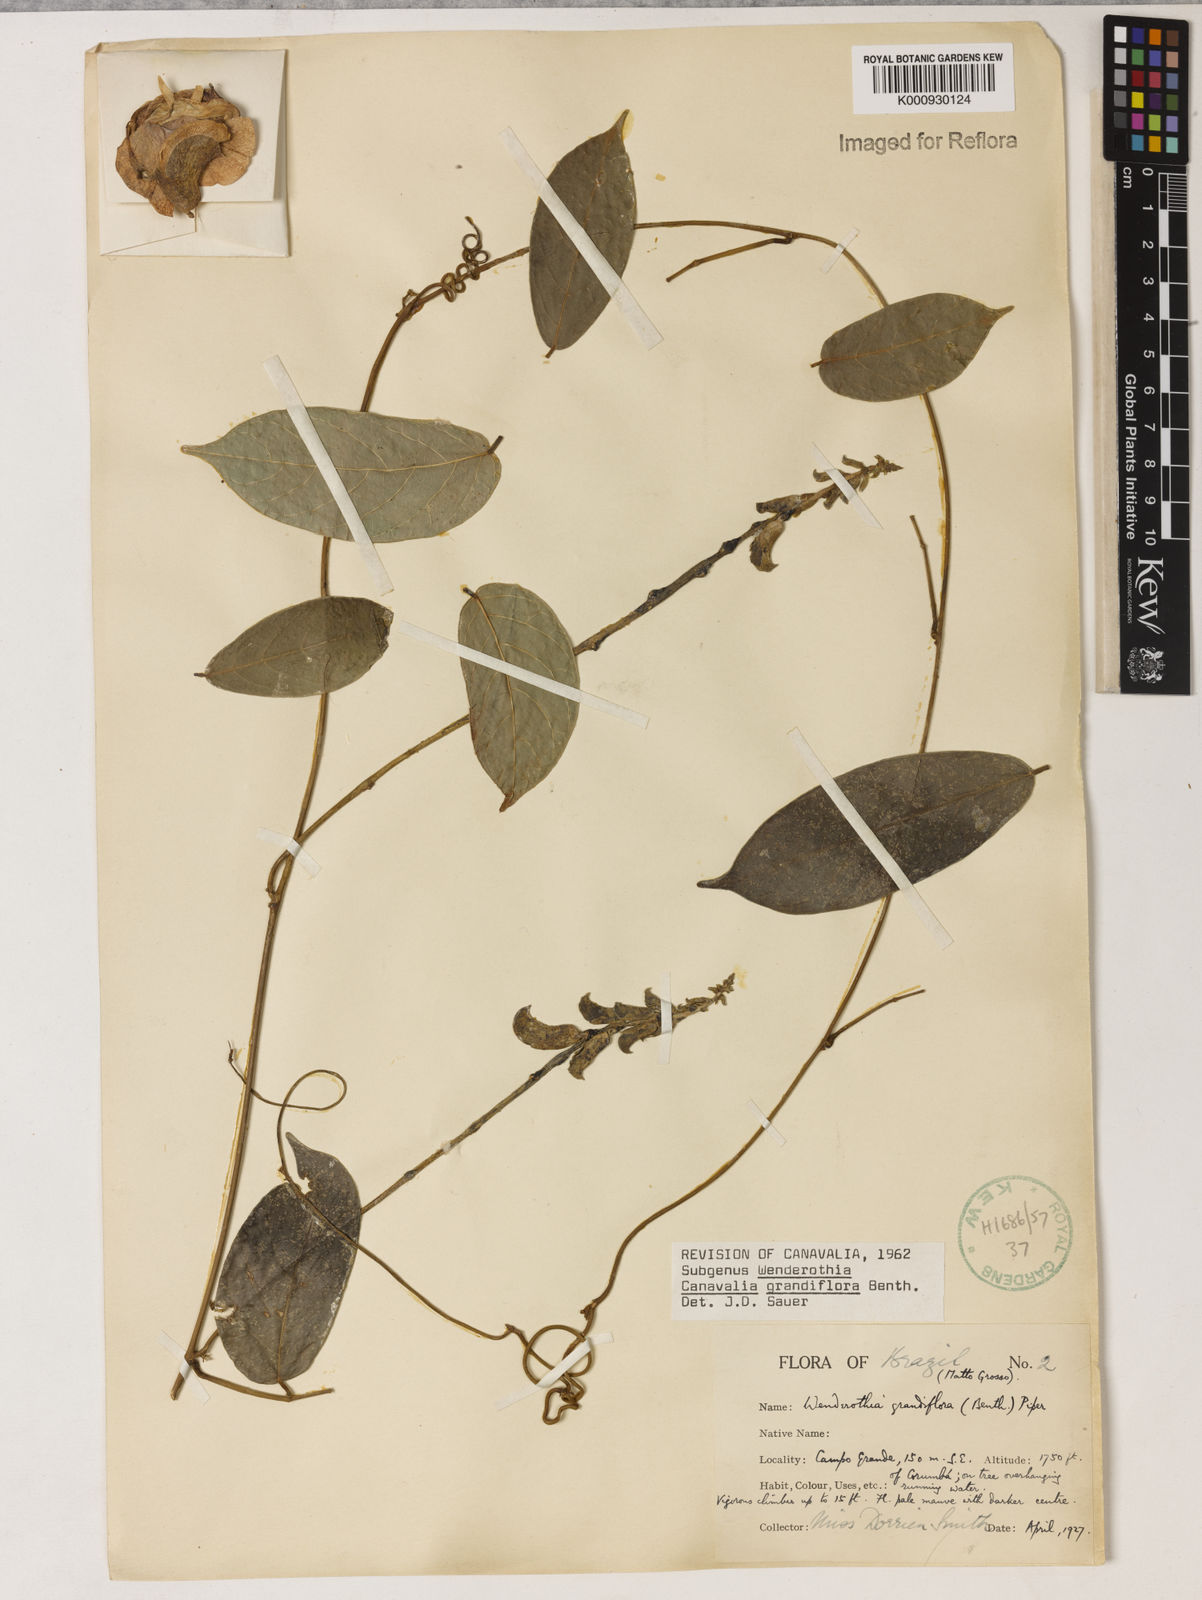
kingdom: Plantae
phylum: Tracheophyta
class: Magnoliopsida
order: Fabales
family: Fabaceae
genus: Canavalia
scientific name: Canavalia grandiflora
